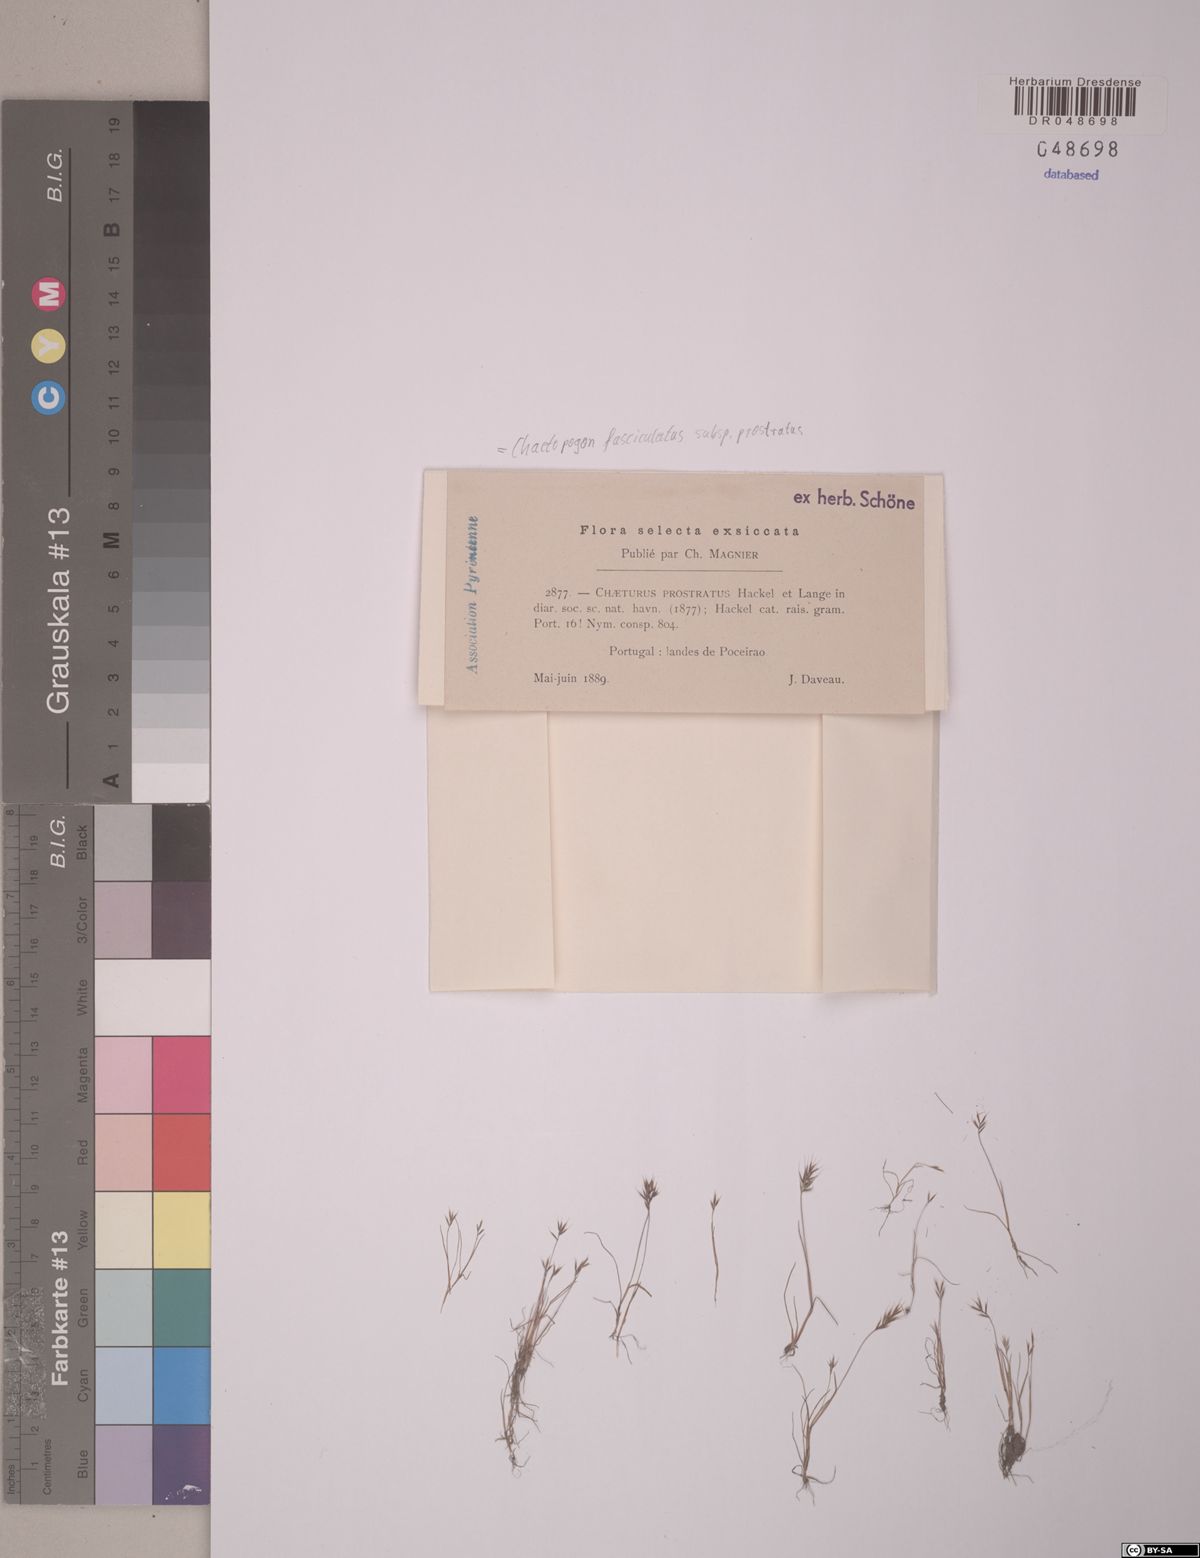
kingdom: Plantae
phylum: Tracheophyta
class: Liliopsida
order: Poales
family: Poaceae
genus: Agrostis
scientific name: Agrostis subspicata
